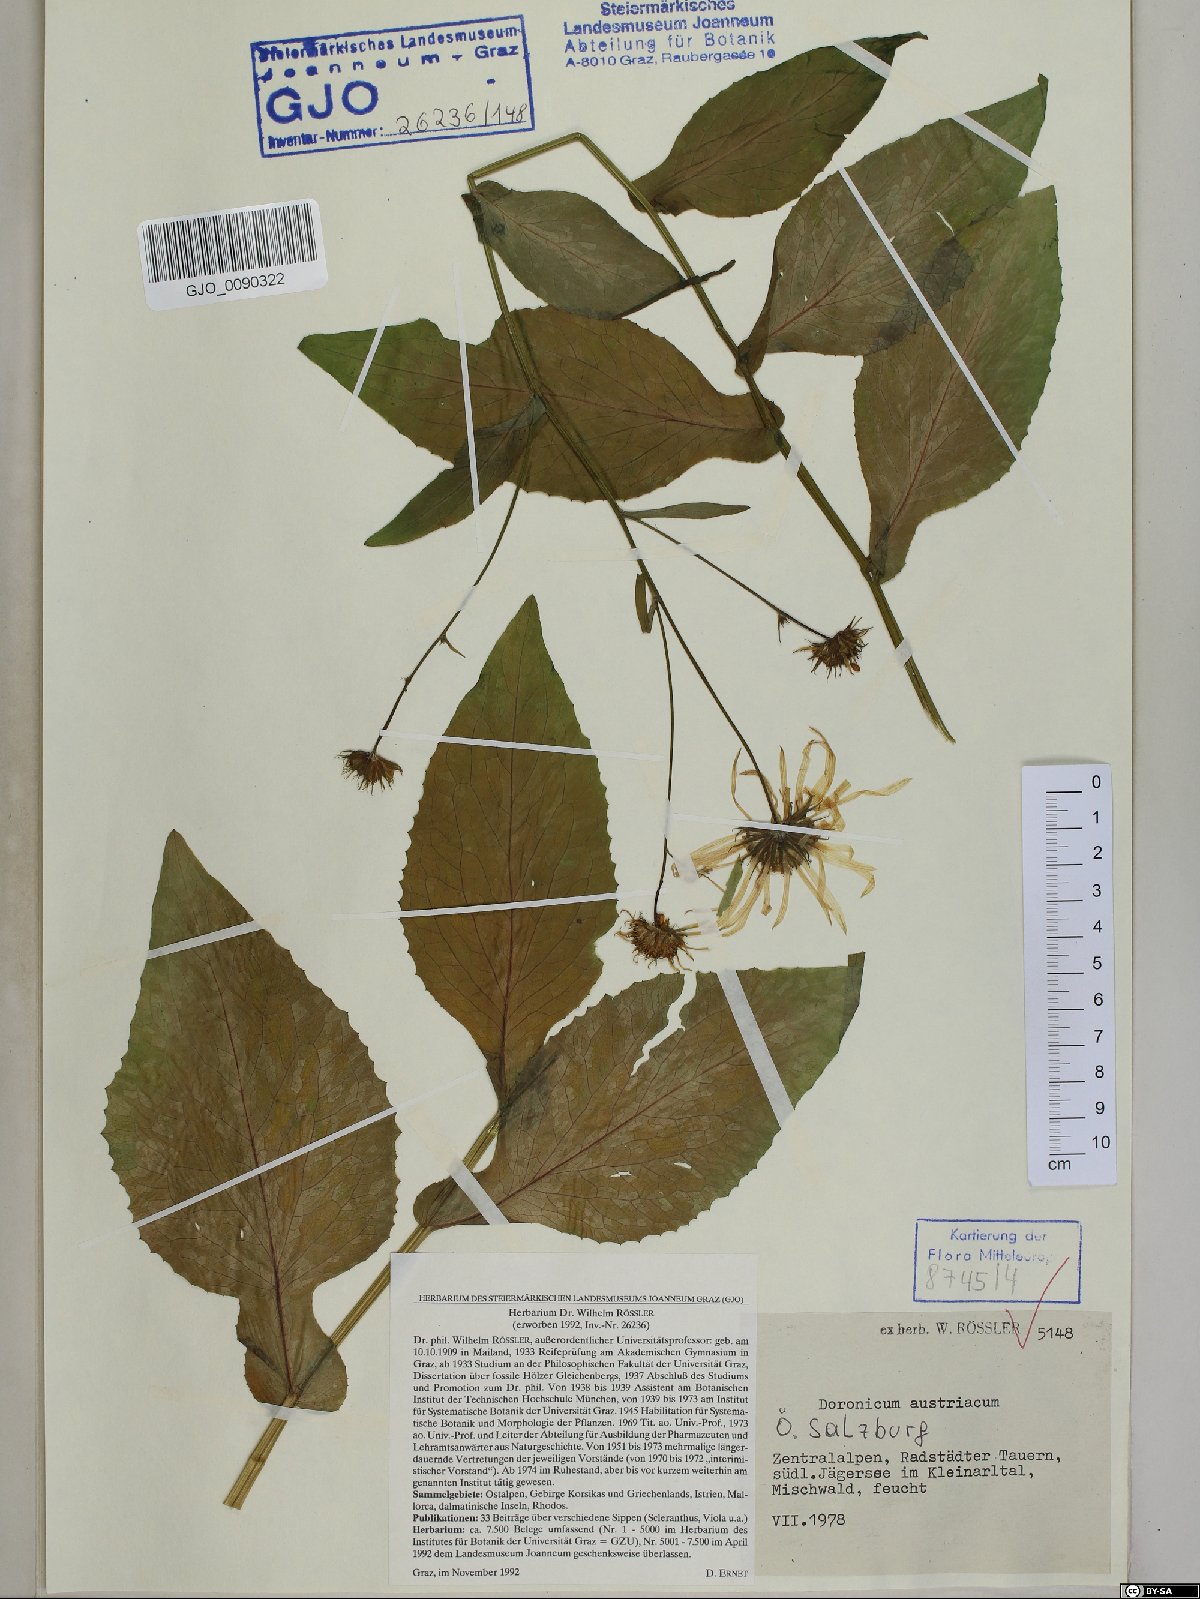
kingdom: Plantae
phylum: Tracheophyta
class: Magnoliopsida
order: Asterales
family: Asteraceae
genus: Doronicum
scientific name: Doronicum austriacum
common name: Austrian leopard's-bane
